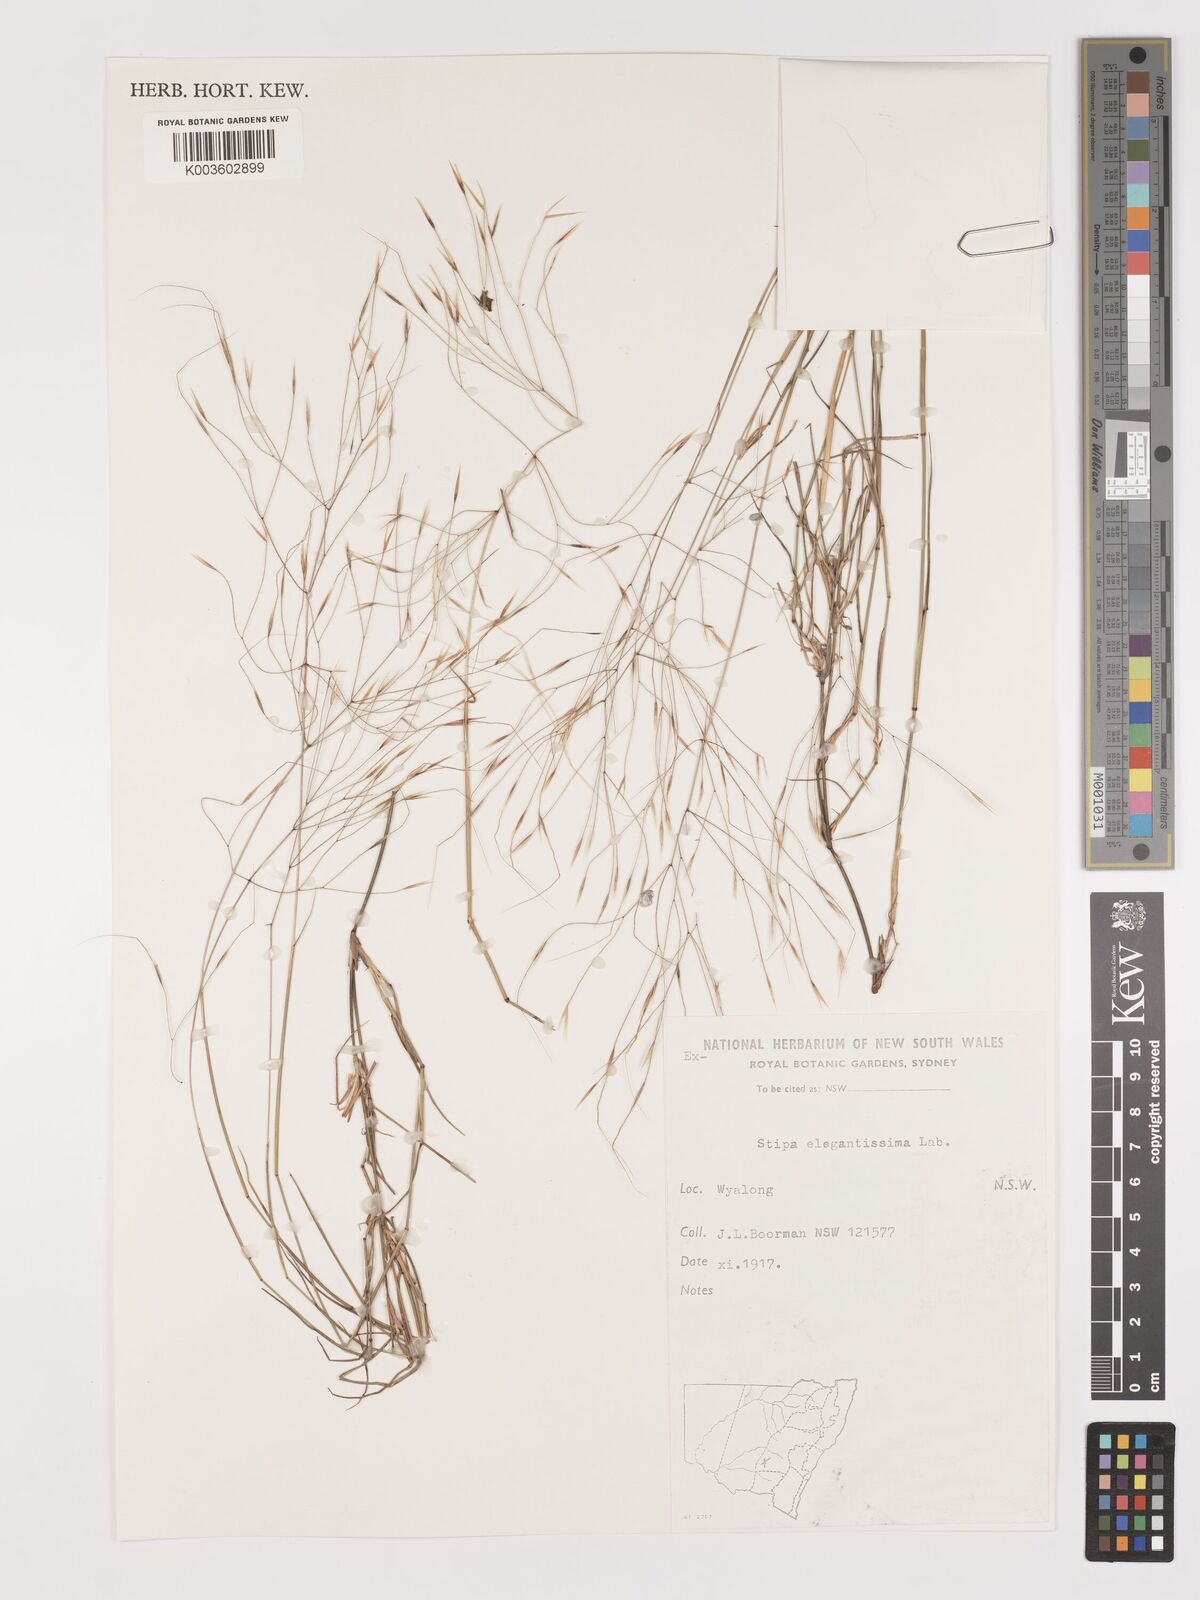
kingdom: Plantae
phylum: Tracheophyta
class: Liliopsida
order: Poales
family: Poaceae
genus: Austrostipa
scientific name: Austrostipa elegantissima
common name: Feather spear grass
